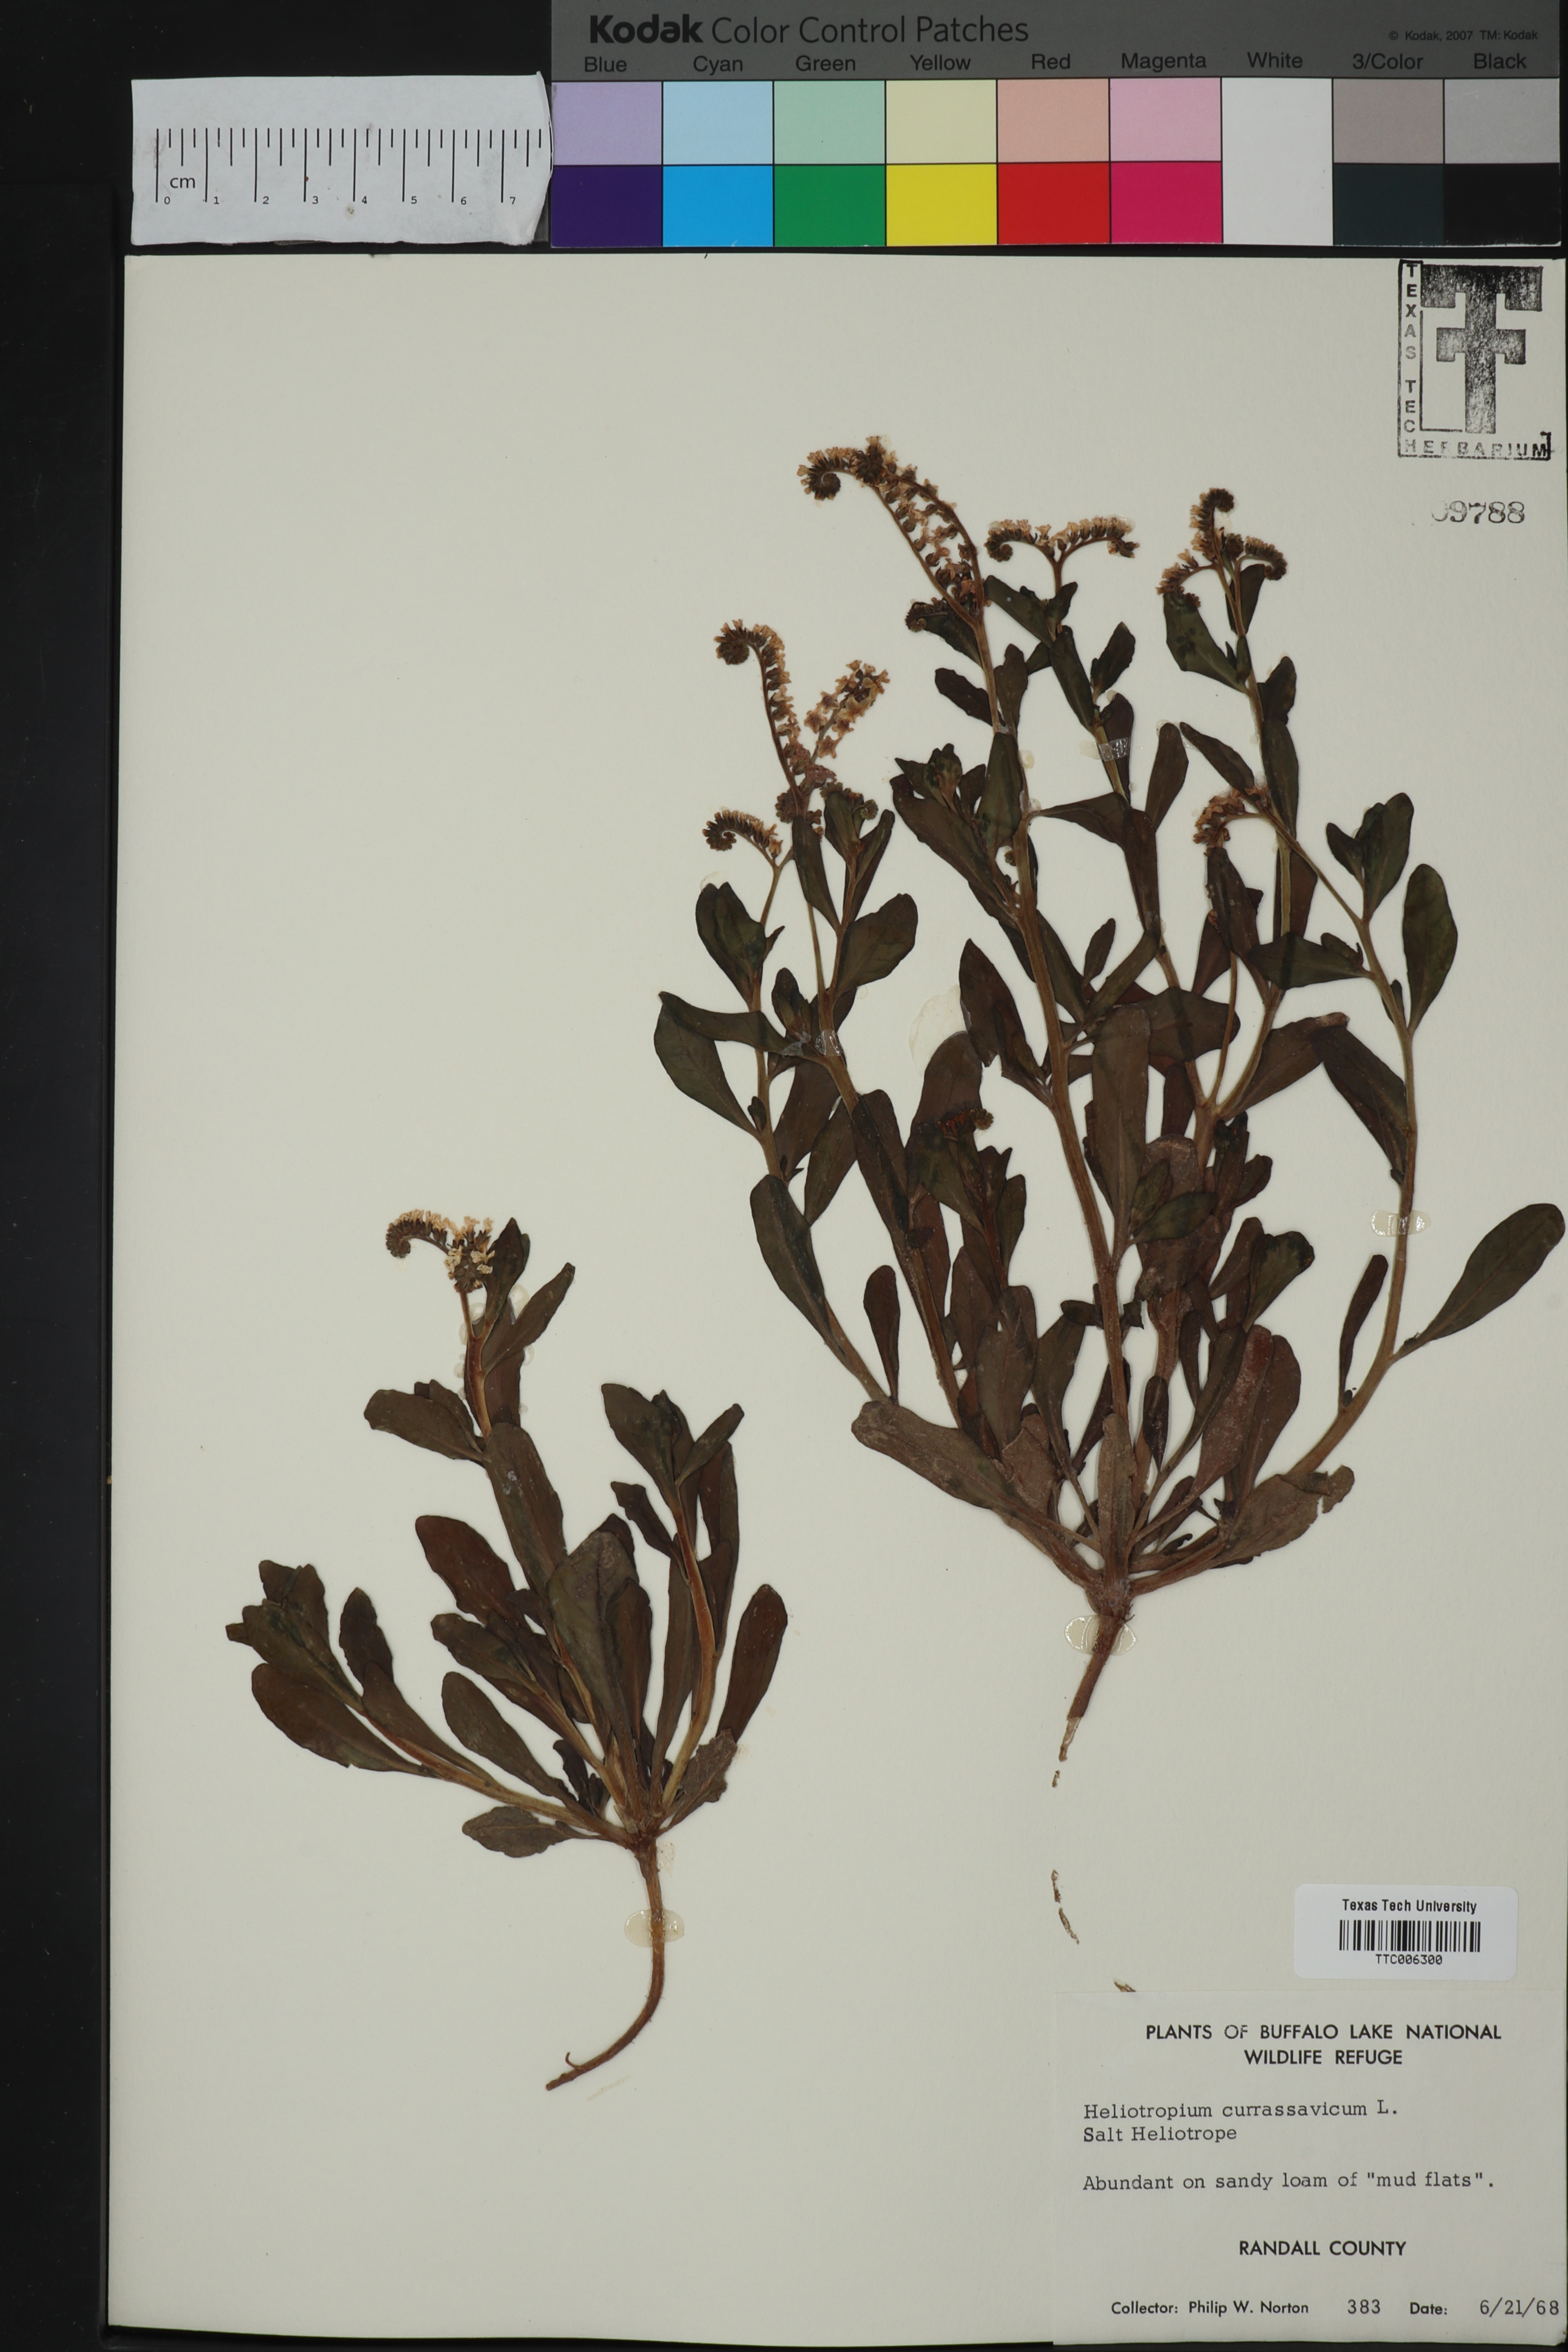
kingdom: Plantae
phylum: Tracheophyta
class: Magnoliopsida
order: Boraginales
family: Heliotropiaceae
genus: Heliotropium
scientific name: Heliotropium curassavicum
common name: Seaside heliotrope
